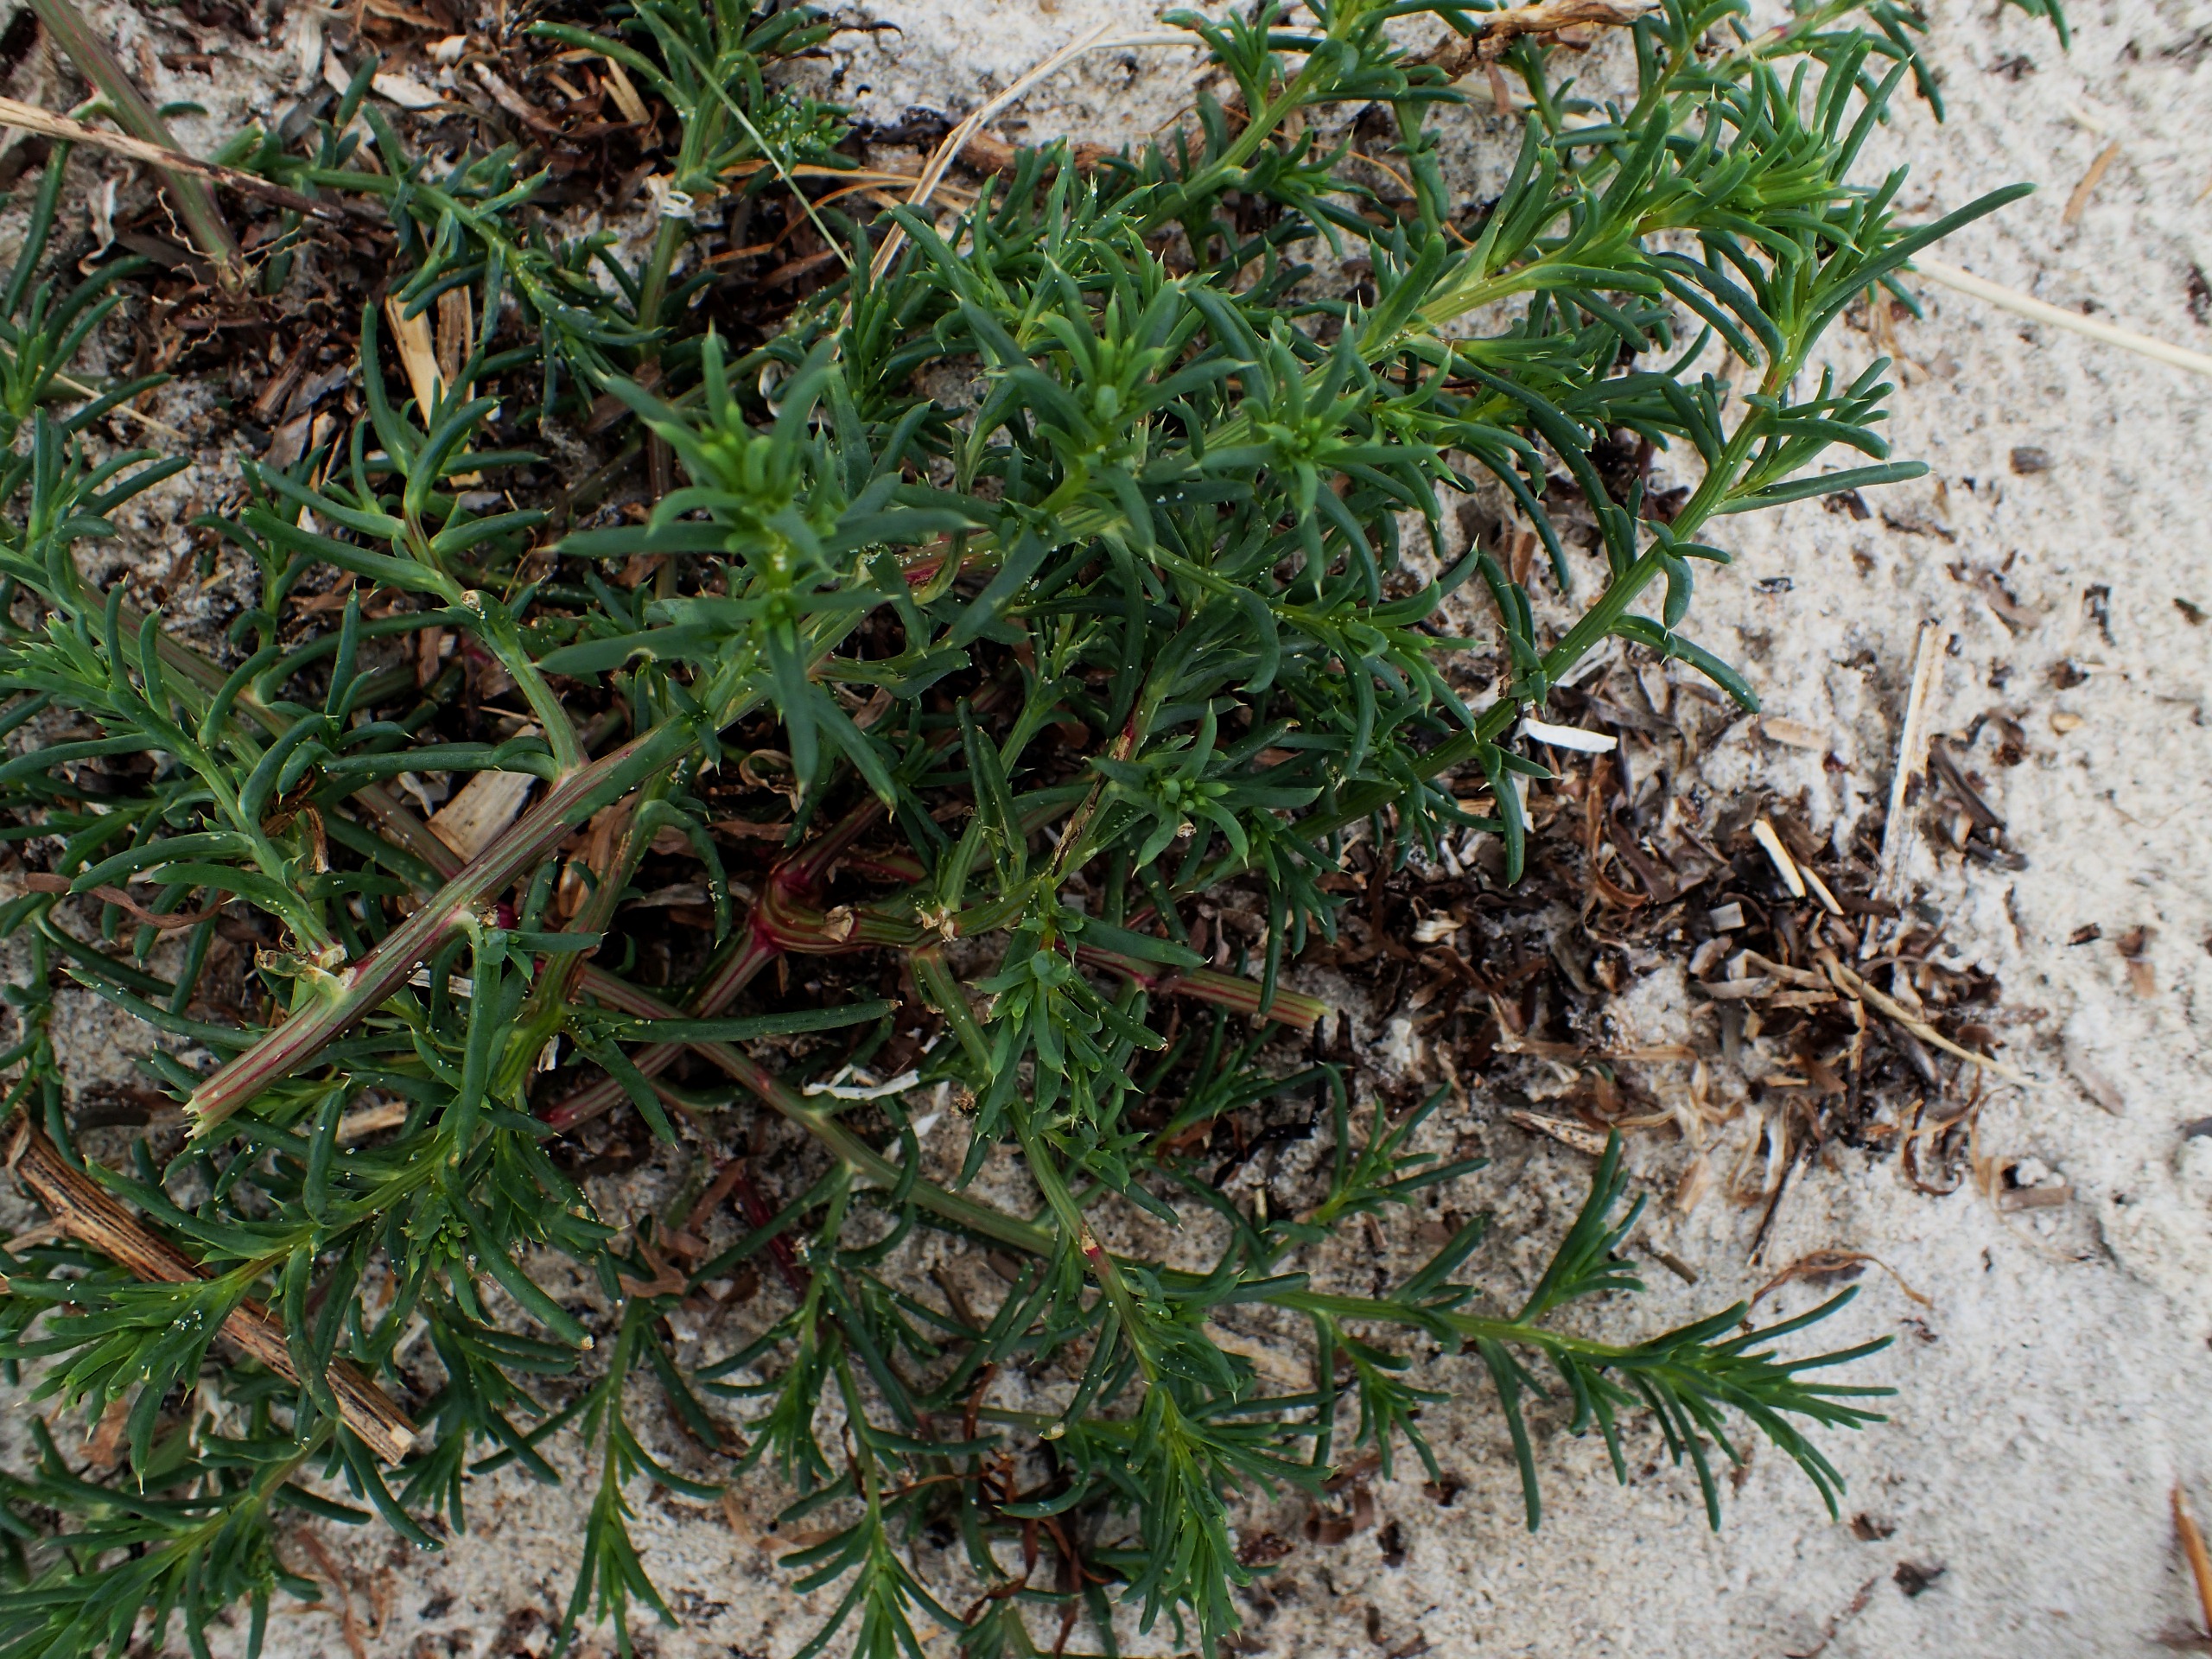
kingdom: Plantae
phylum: Tracheophyta
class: Magnoliopsida
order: Caryophyllales
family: Amaranthaceae
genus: Salsola
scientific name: Salsola kali
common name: Sodaurt
